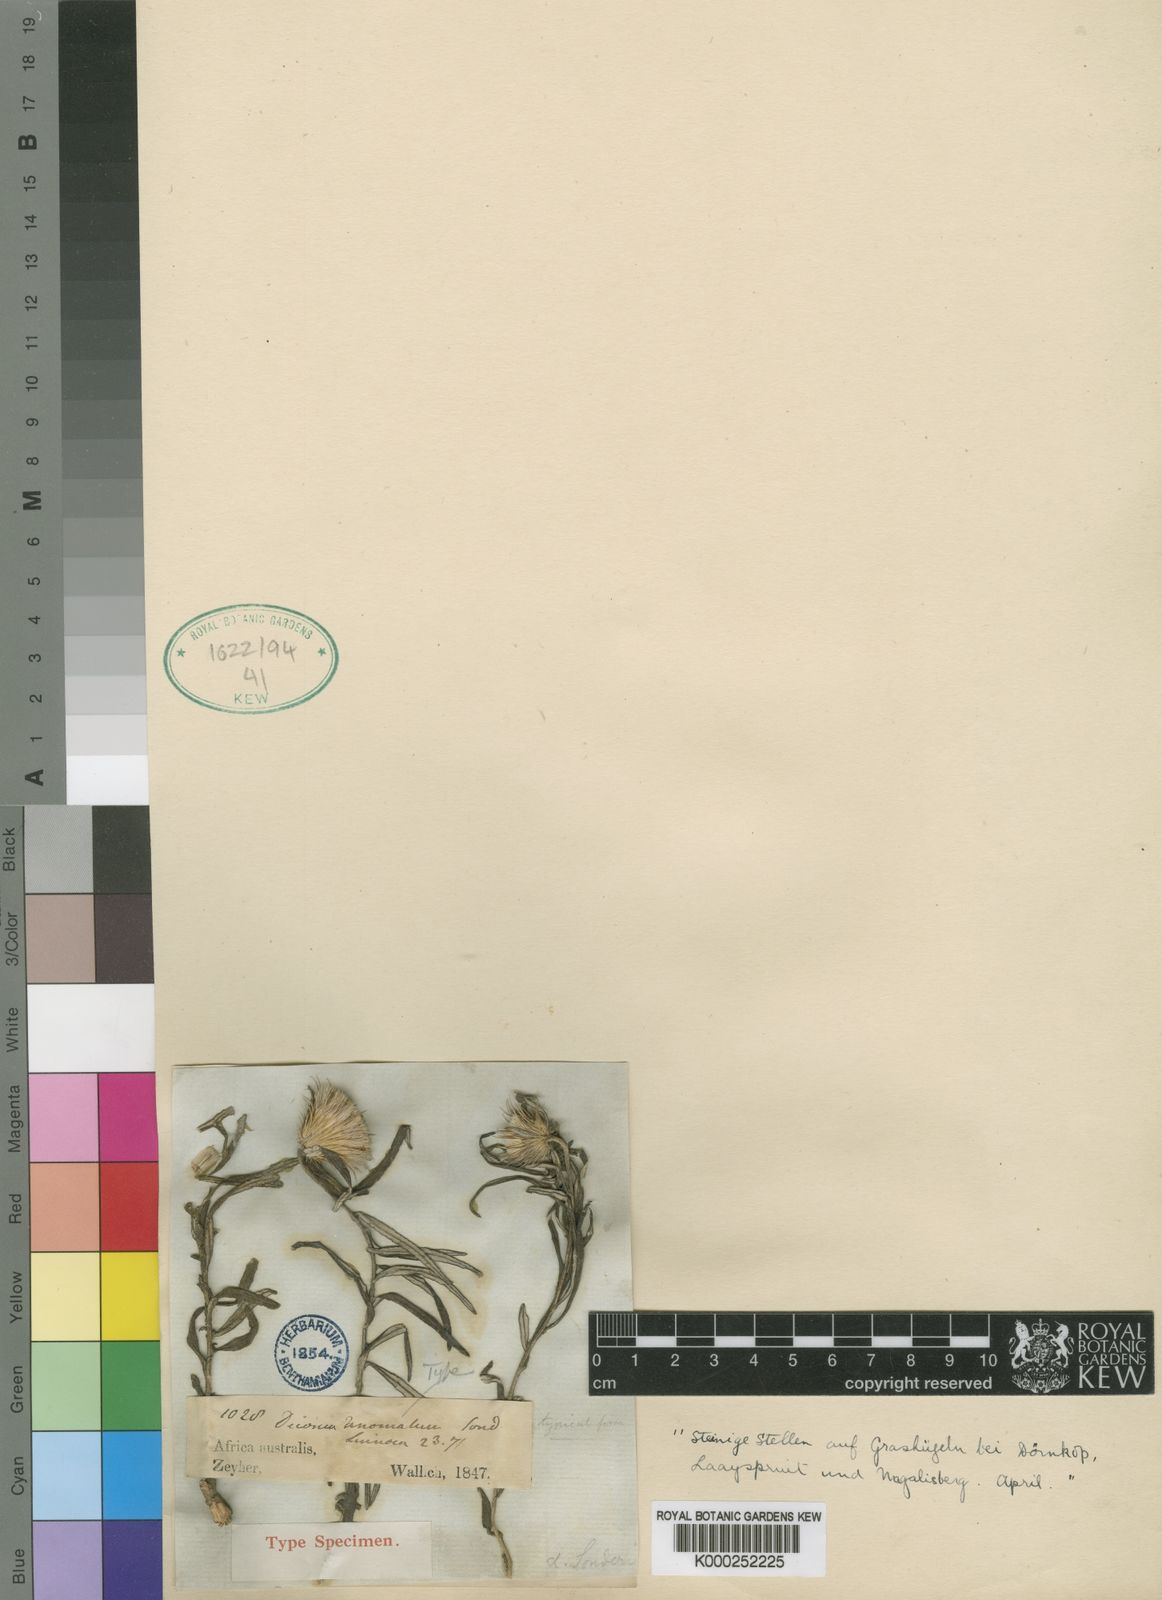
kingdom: Plantae
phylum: Tracheophyta
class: Magnoliopsida
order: Asterales
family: Asteraceae
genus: Dicoma
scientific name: Dicoma anomala
